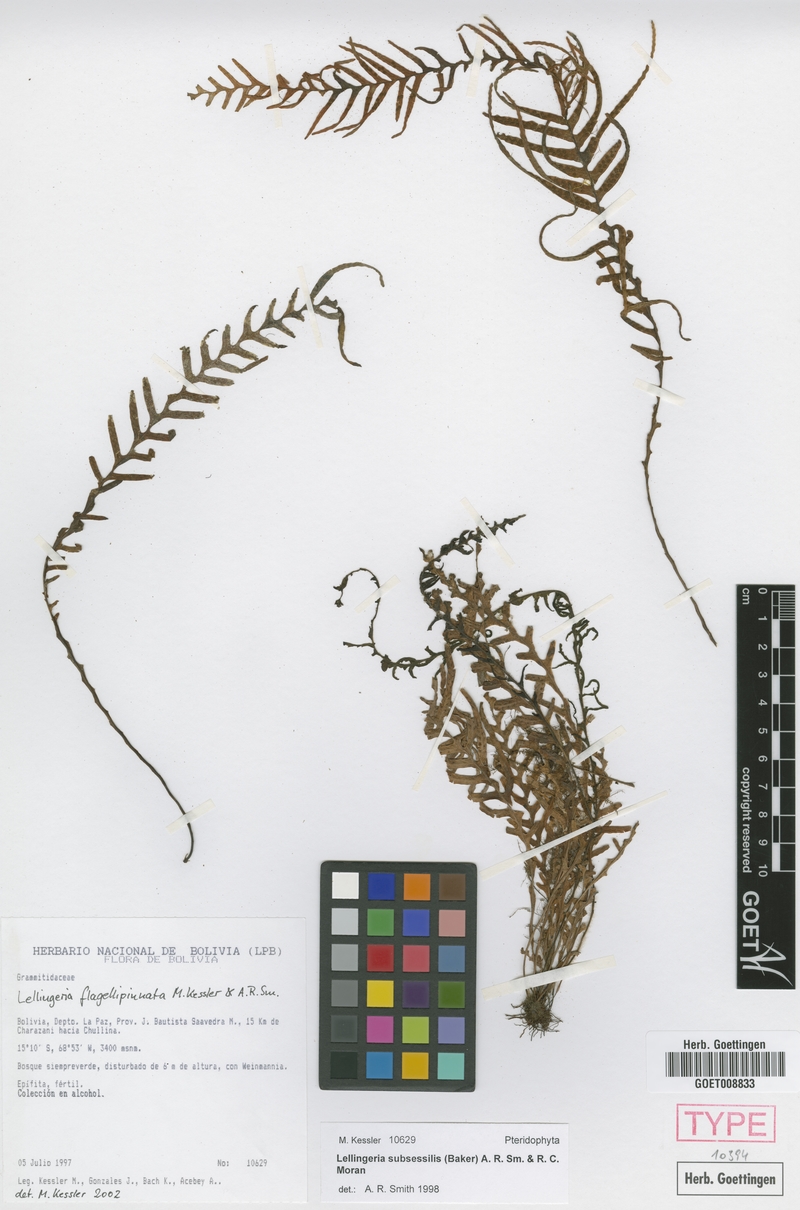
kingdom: Plantae
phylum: Tracheophyta
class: Polypodiopsida
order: Polypodiales
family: Polypodiaceae
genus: Lellingeria
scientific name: Lellingeria flagellipinnata
